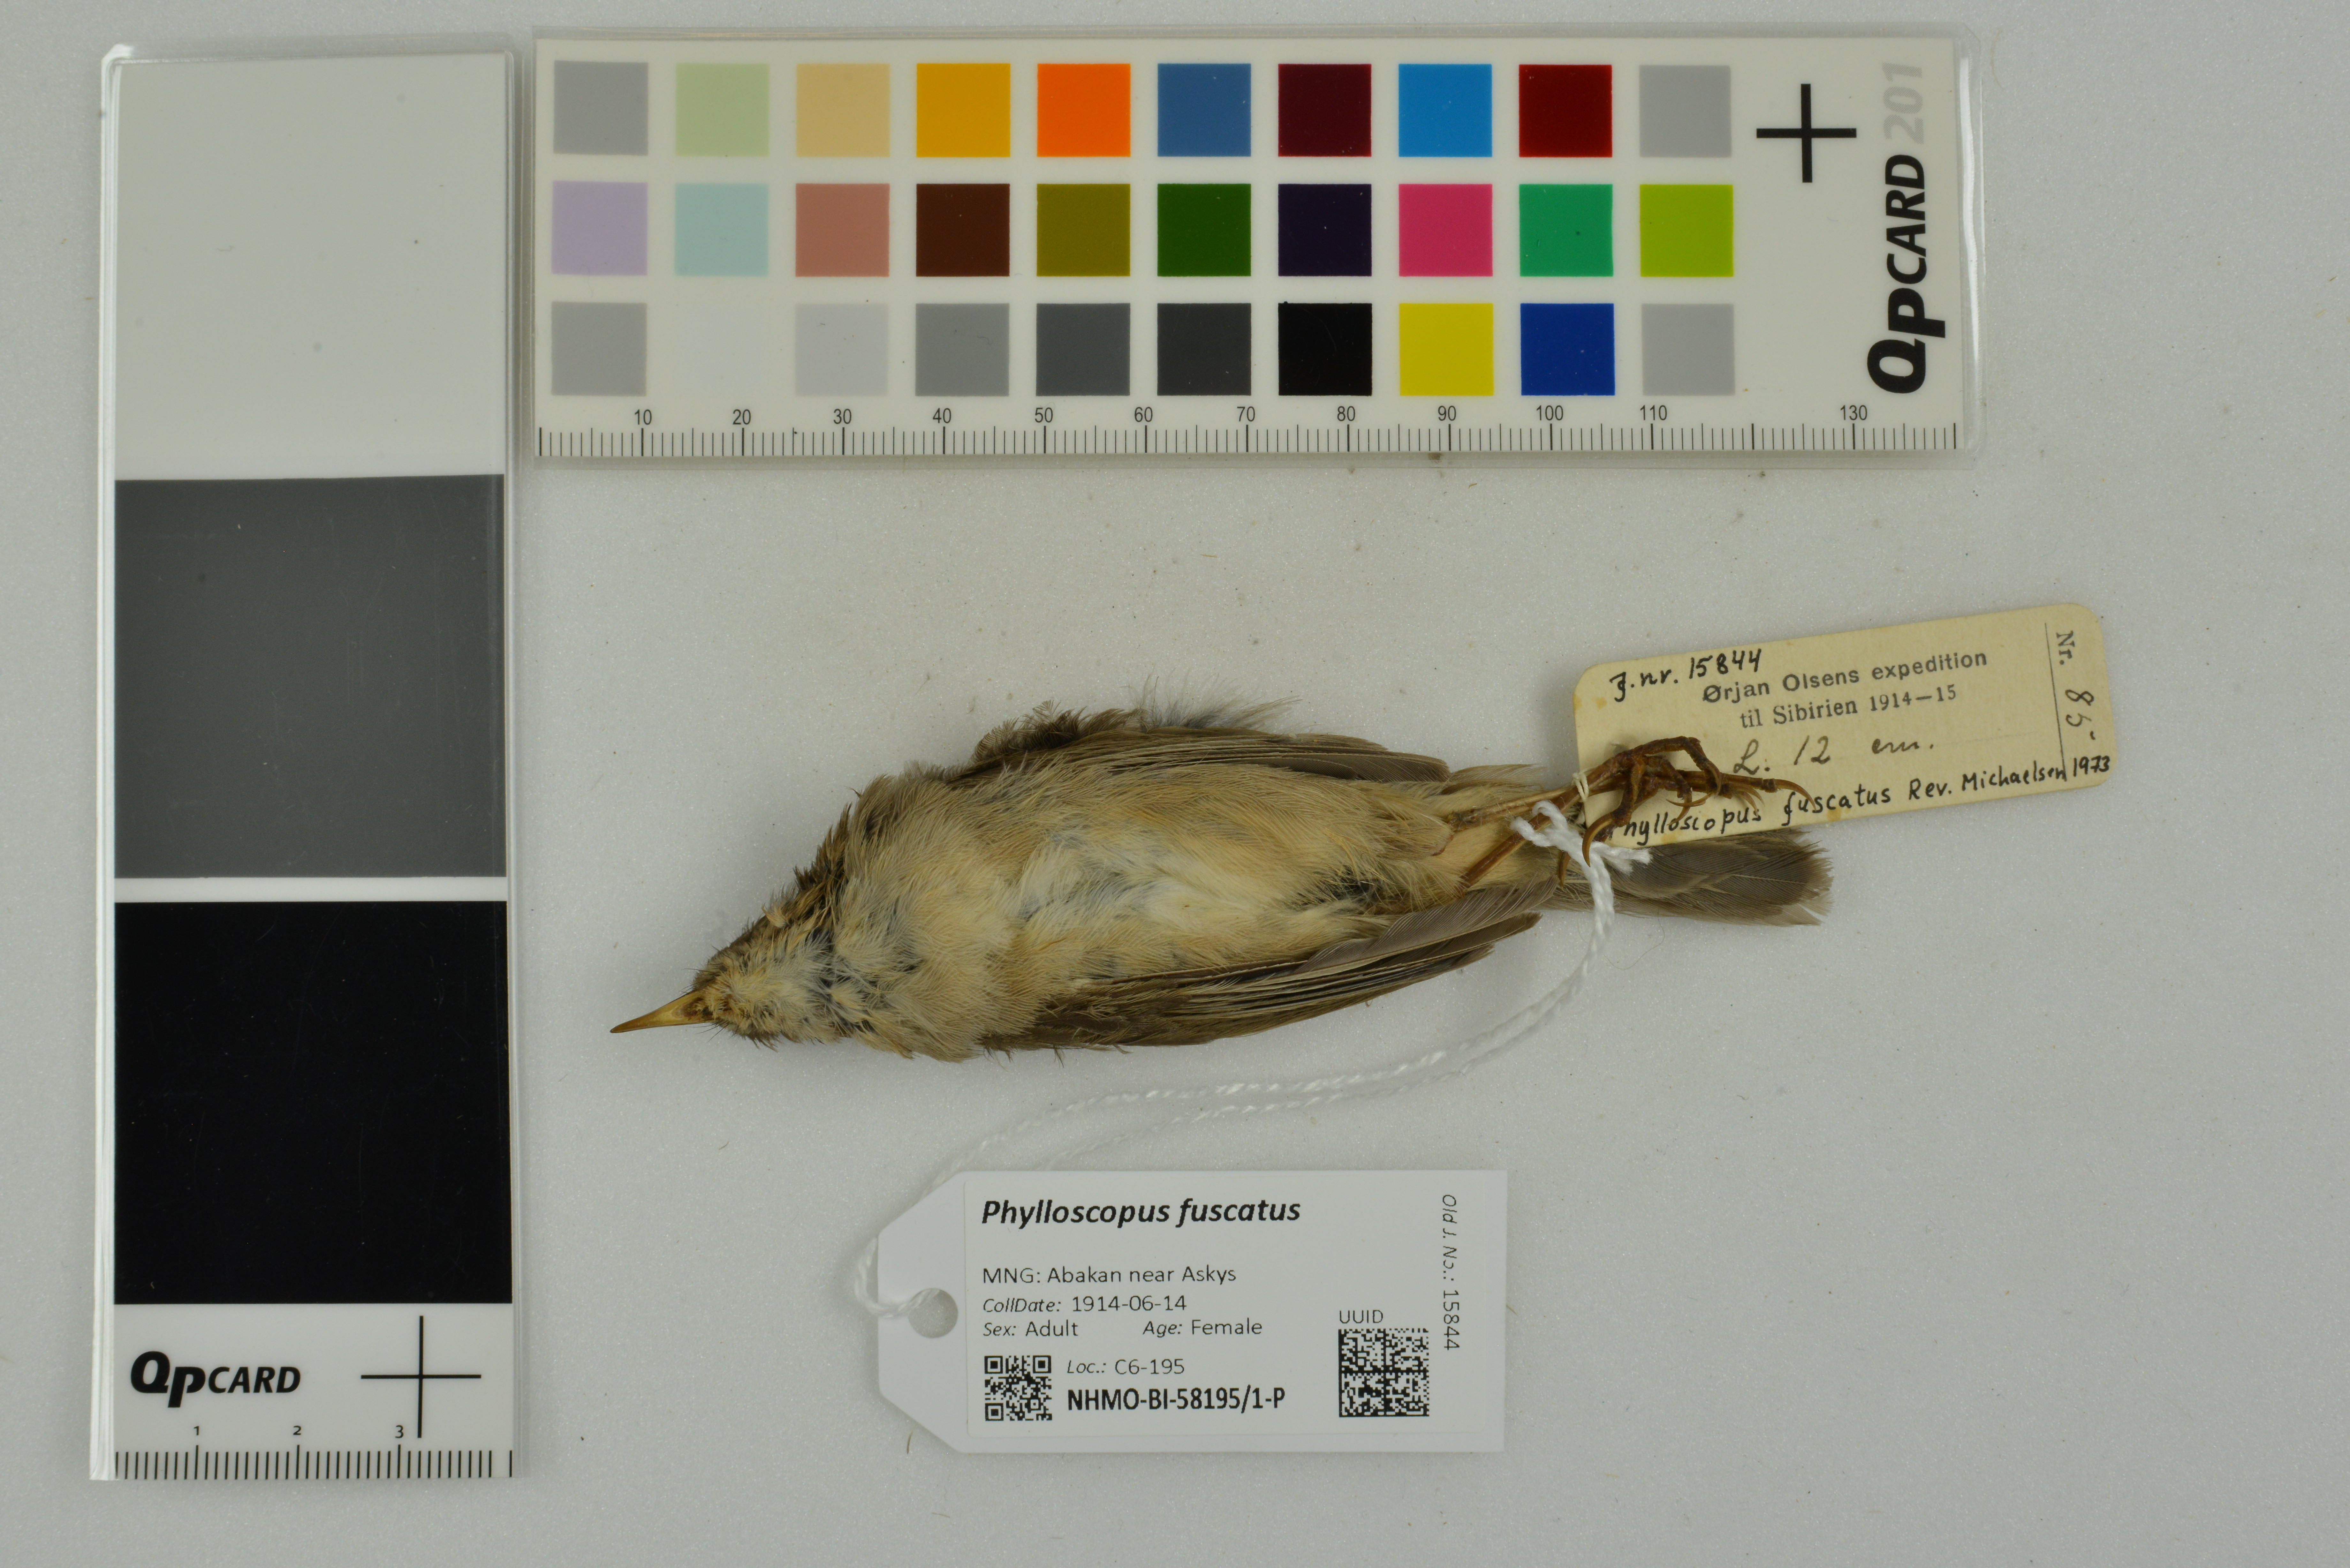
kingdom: Animalia
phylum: Chordata
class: Aves
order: Passeriformes
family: Phylloscopidae
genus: Phylloscopus
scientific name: Phylloscopus fuscatus
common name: Dusky warbler
